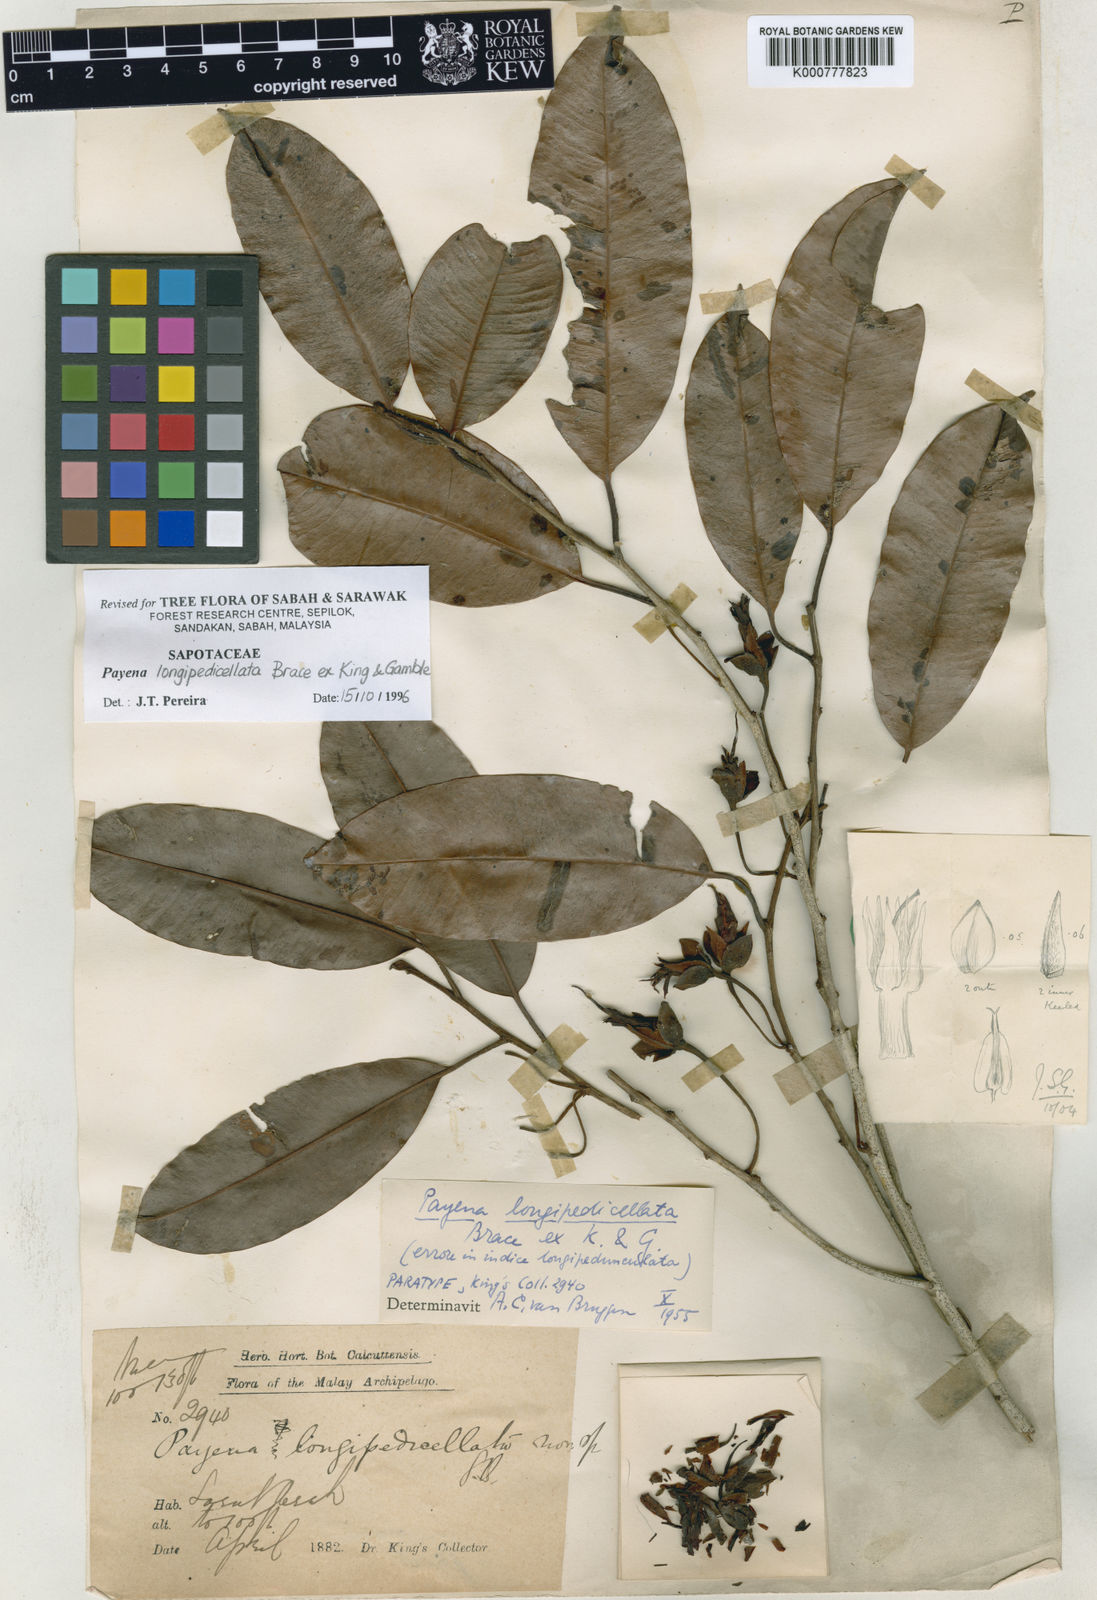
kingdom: Plantae
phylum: Tracheophyta
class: Magnoliopsida
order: Ericales
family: Sapotaceae
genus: Payena
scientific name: Payena longipedicellata
